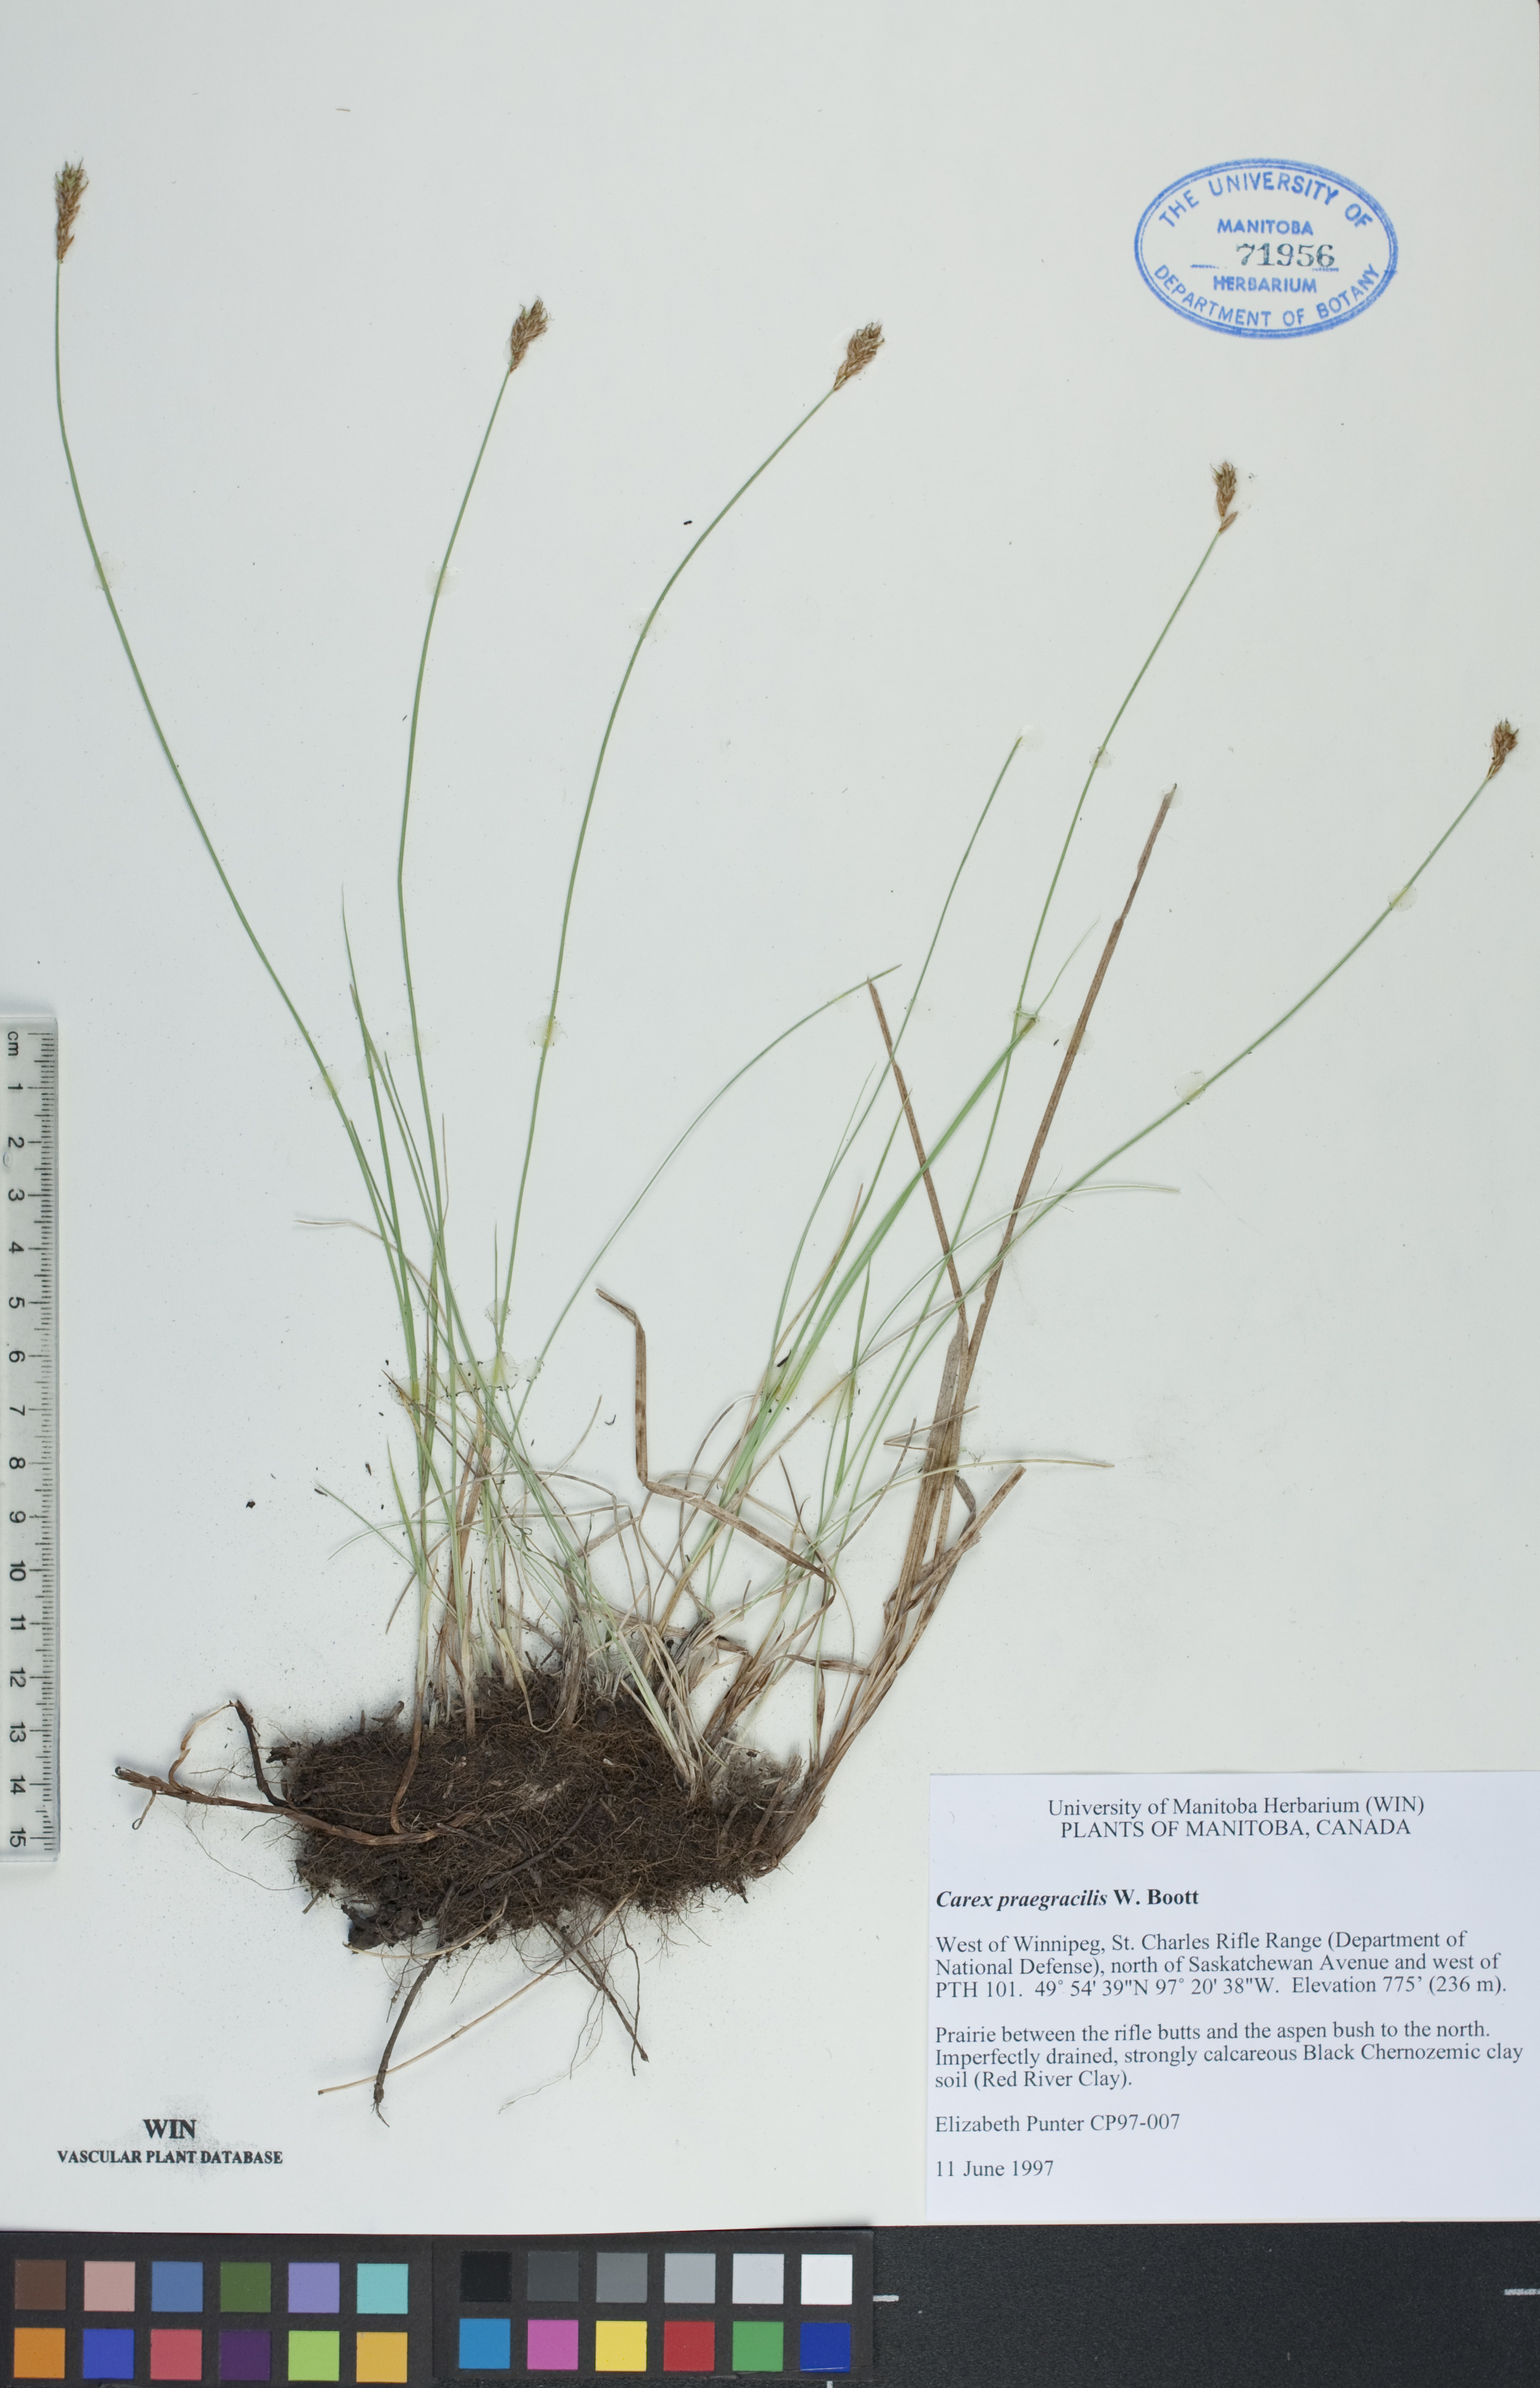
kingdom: Plantae
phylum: Tracheophyta
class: Liliopsida
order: Poales
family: Cyperaceae
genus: Carex
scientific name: Carex praegracilis
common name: Black creeper sedge
